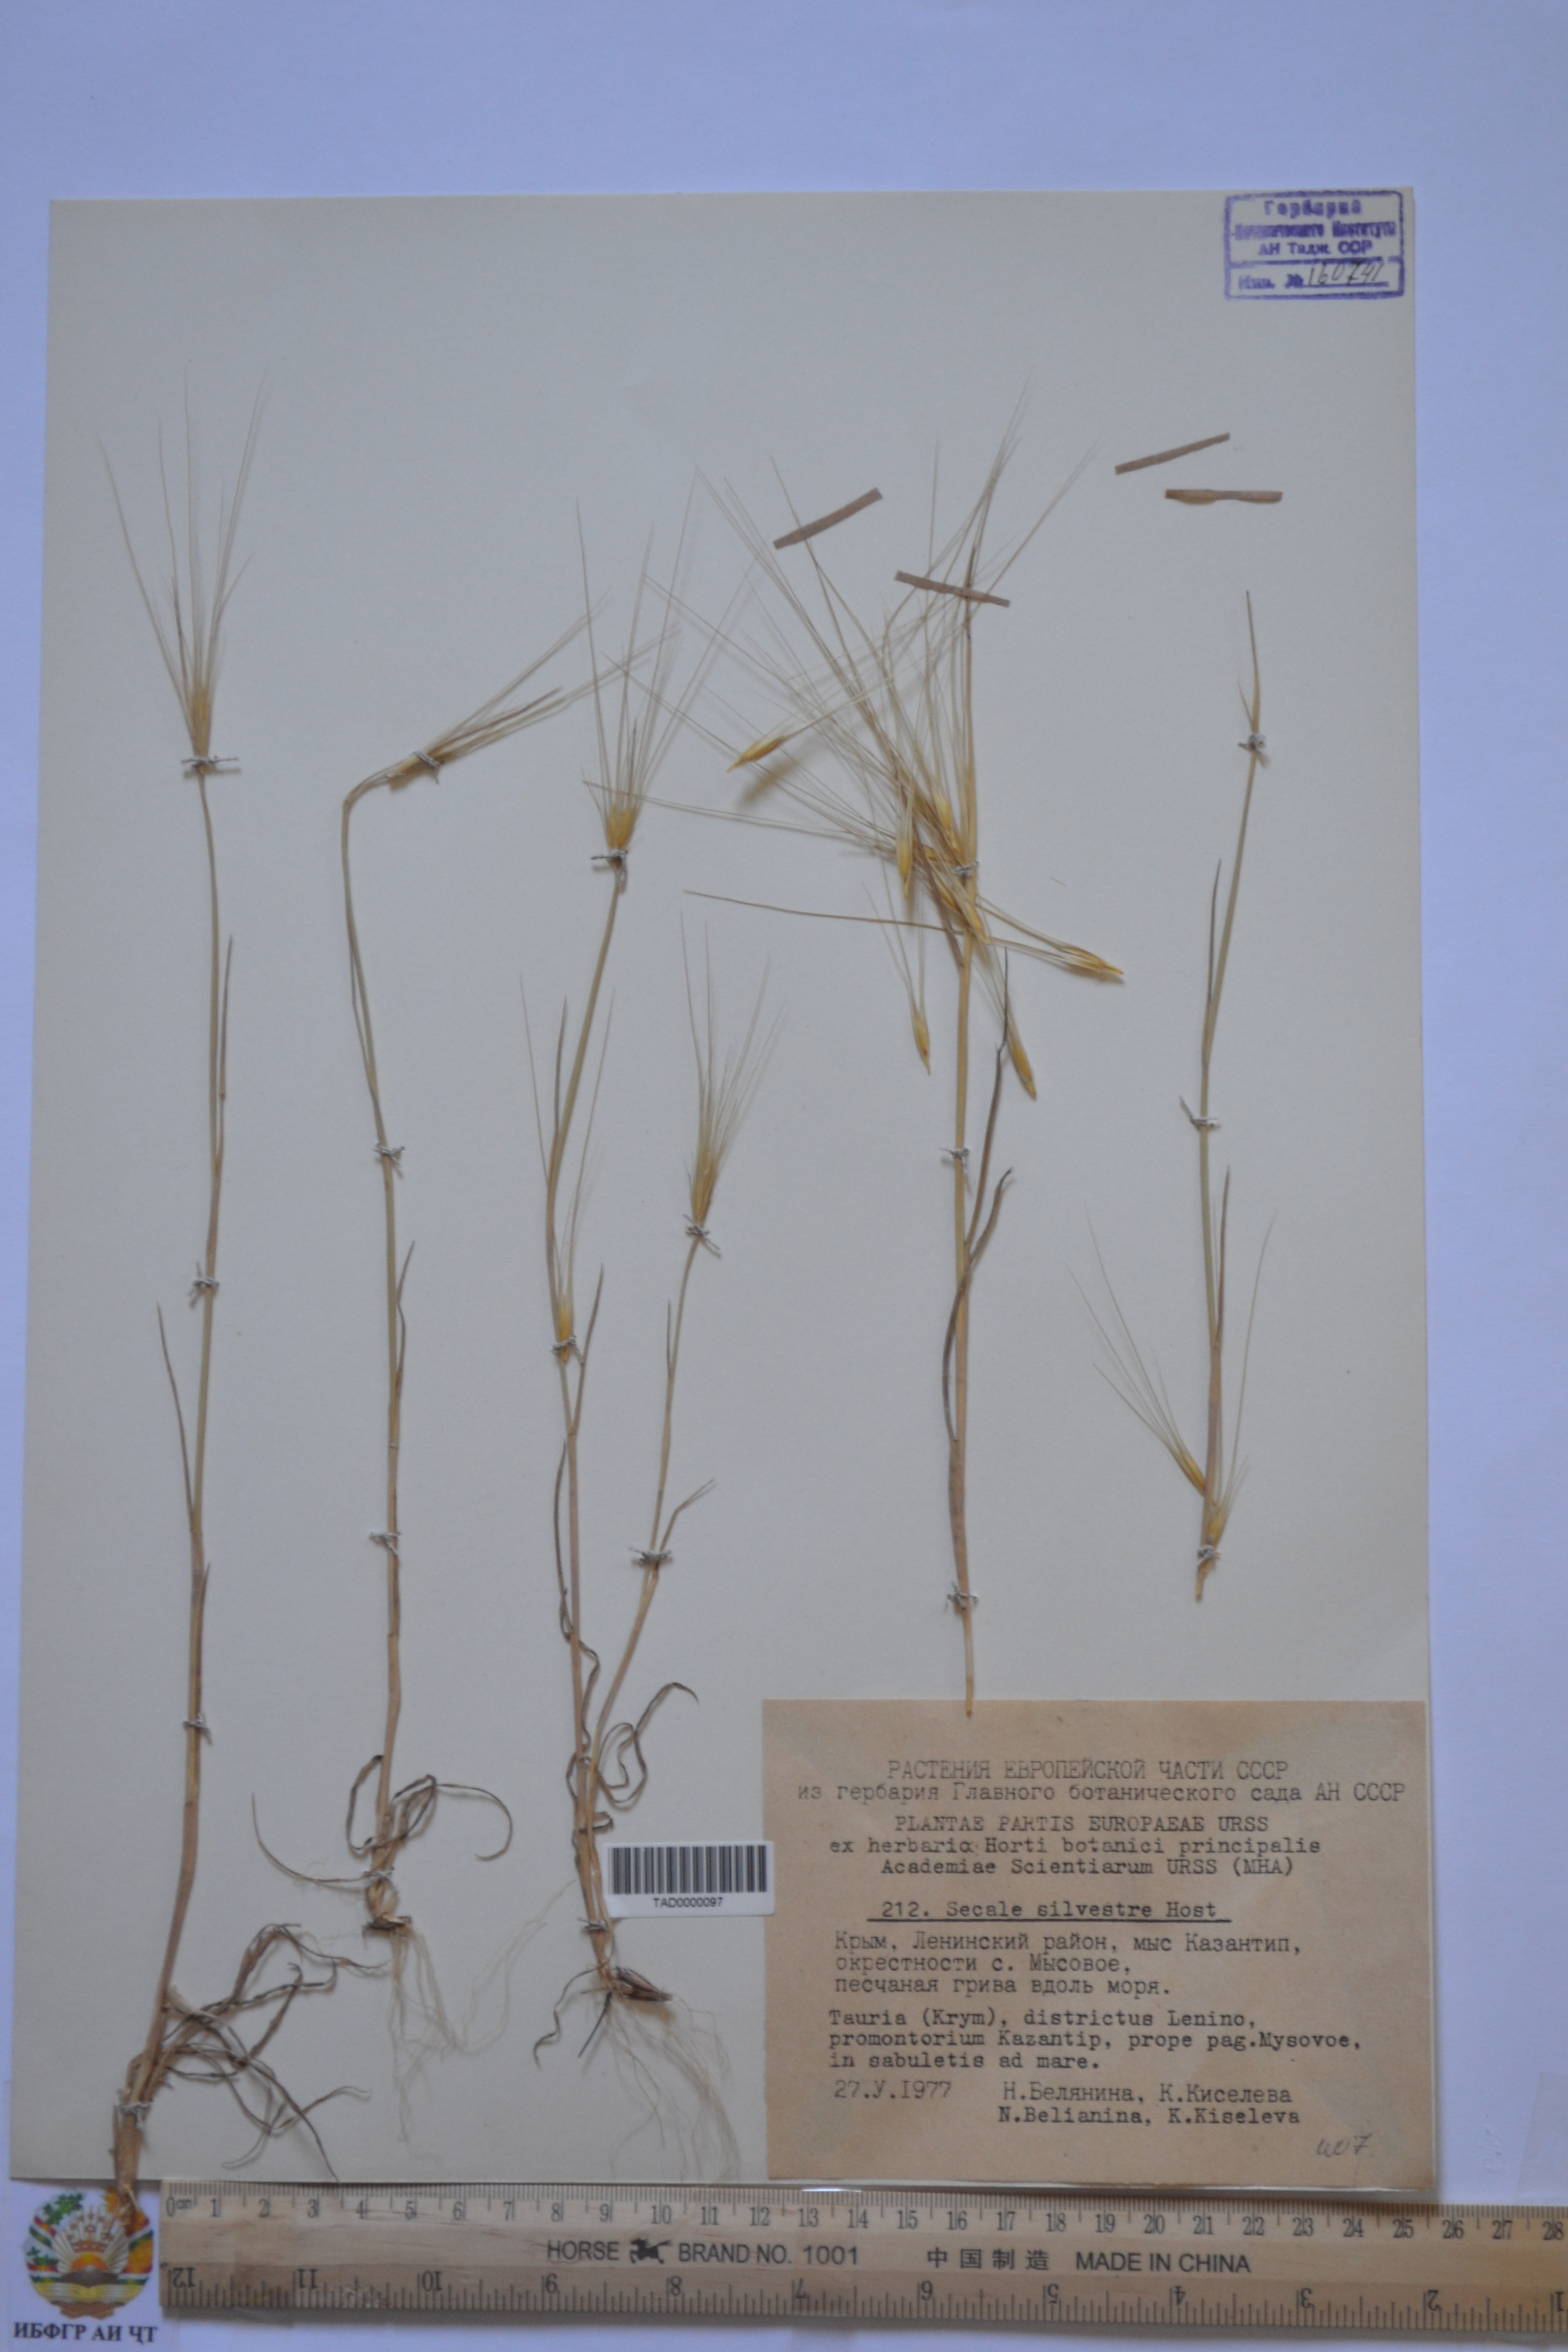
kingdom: Plantae
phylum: Tracheophyta
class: Liliopsida
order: Poales
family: Poaceae
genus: Secale
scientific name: Secale sylvestre
